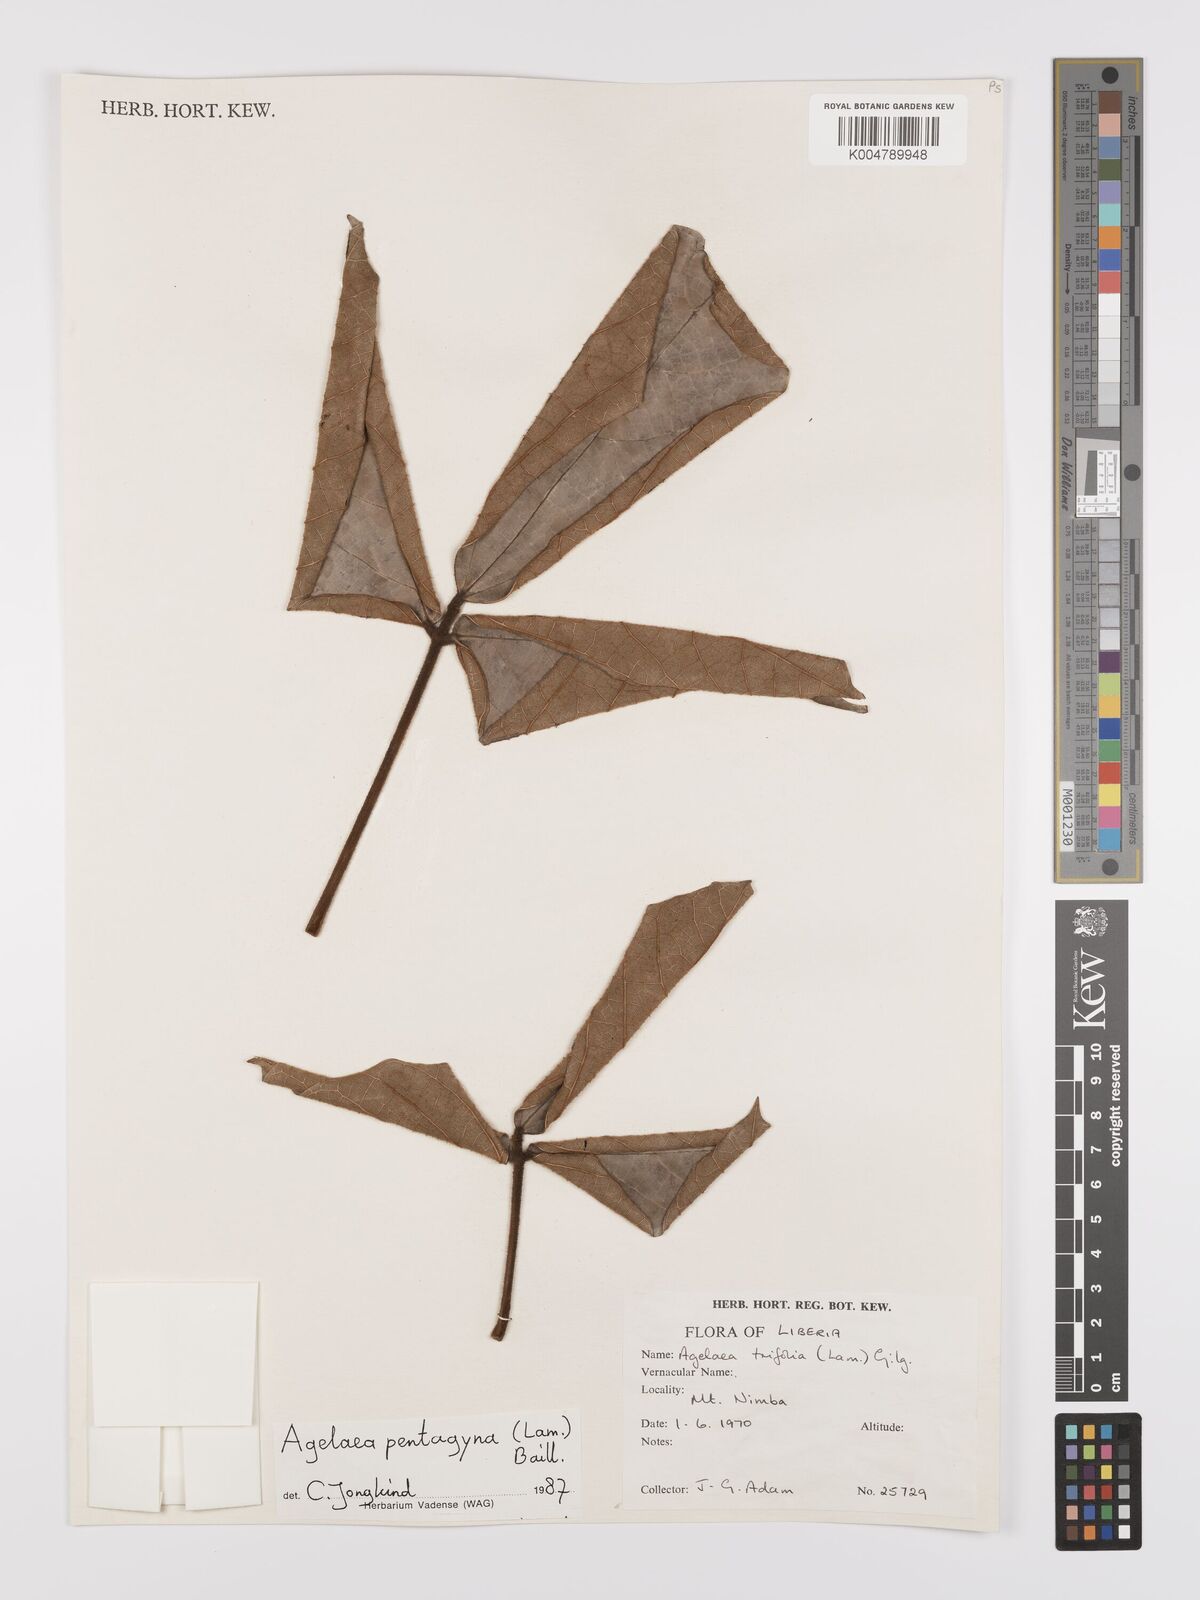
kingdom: Plantae
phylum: Tracheophyta
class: Magnoliopsida
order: Oxalidales
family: Connaraceae
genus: Agelaea
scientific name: Agelaea pentagyna
